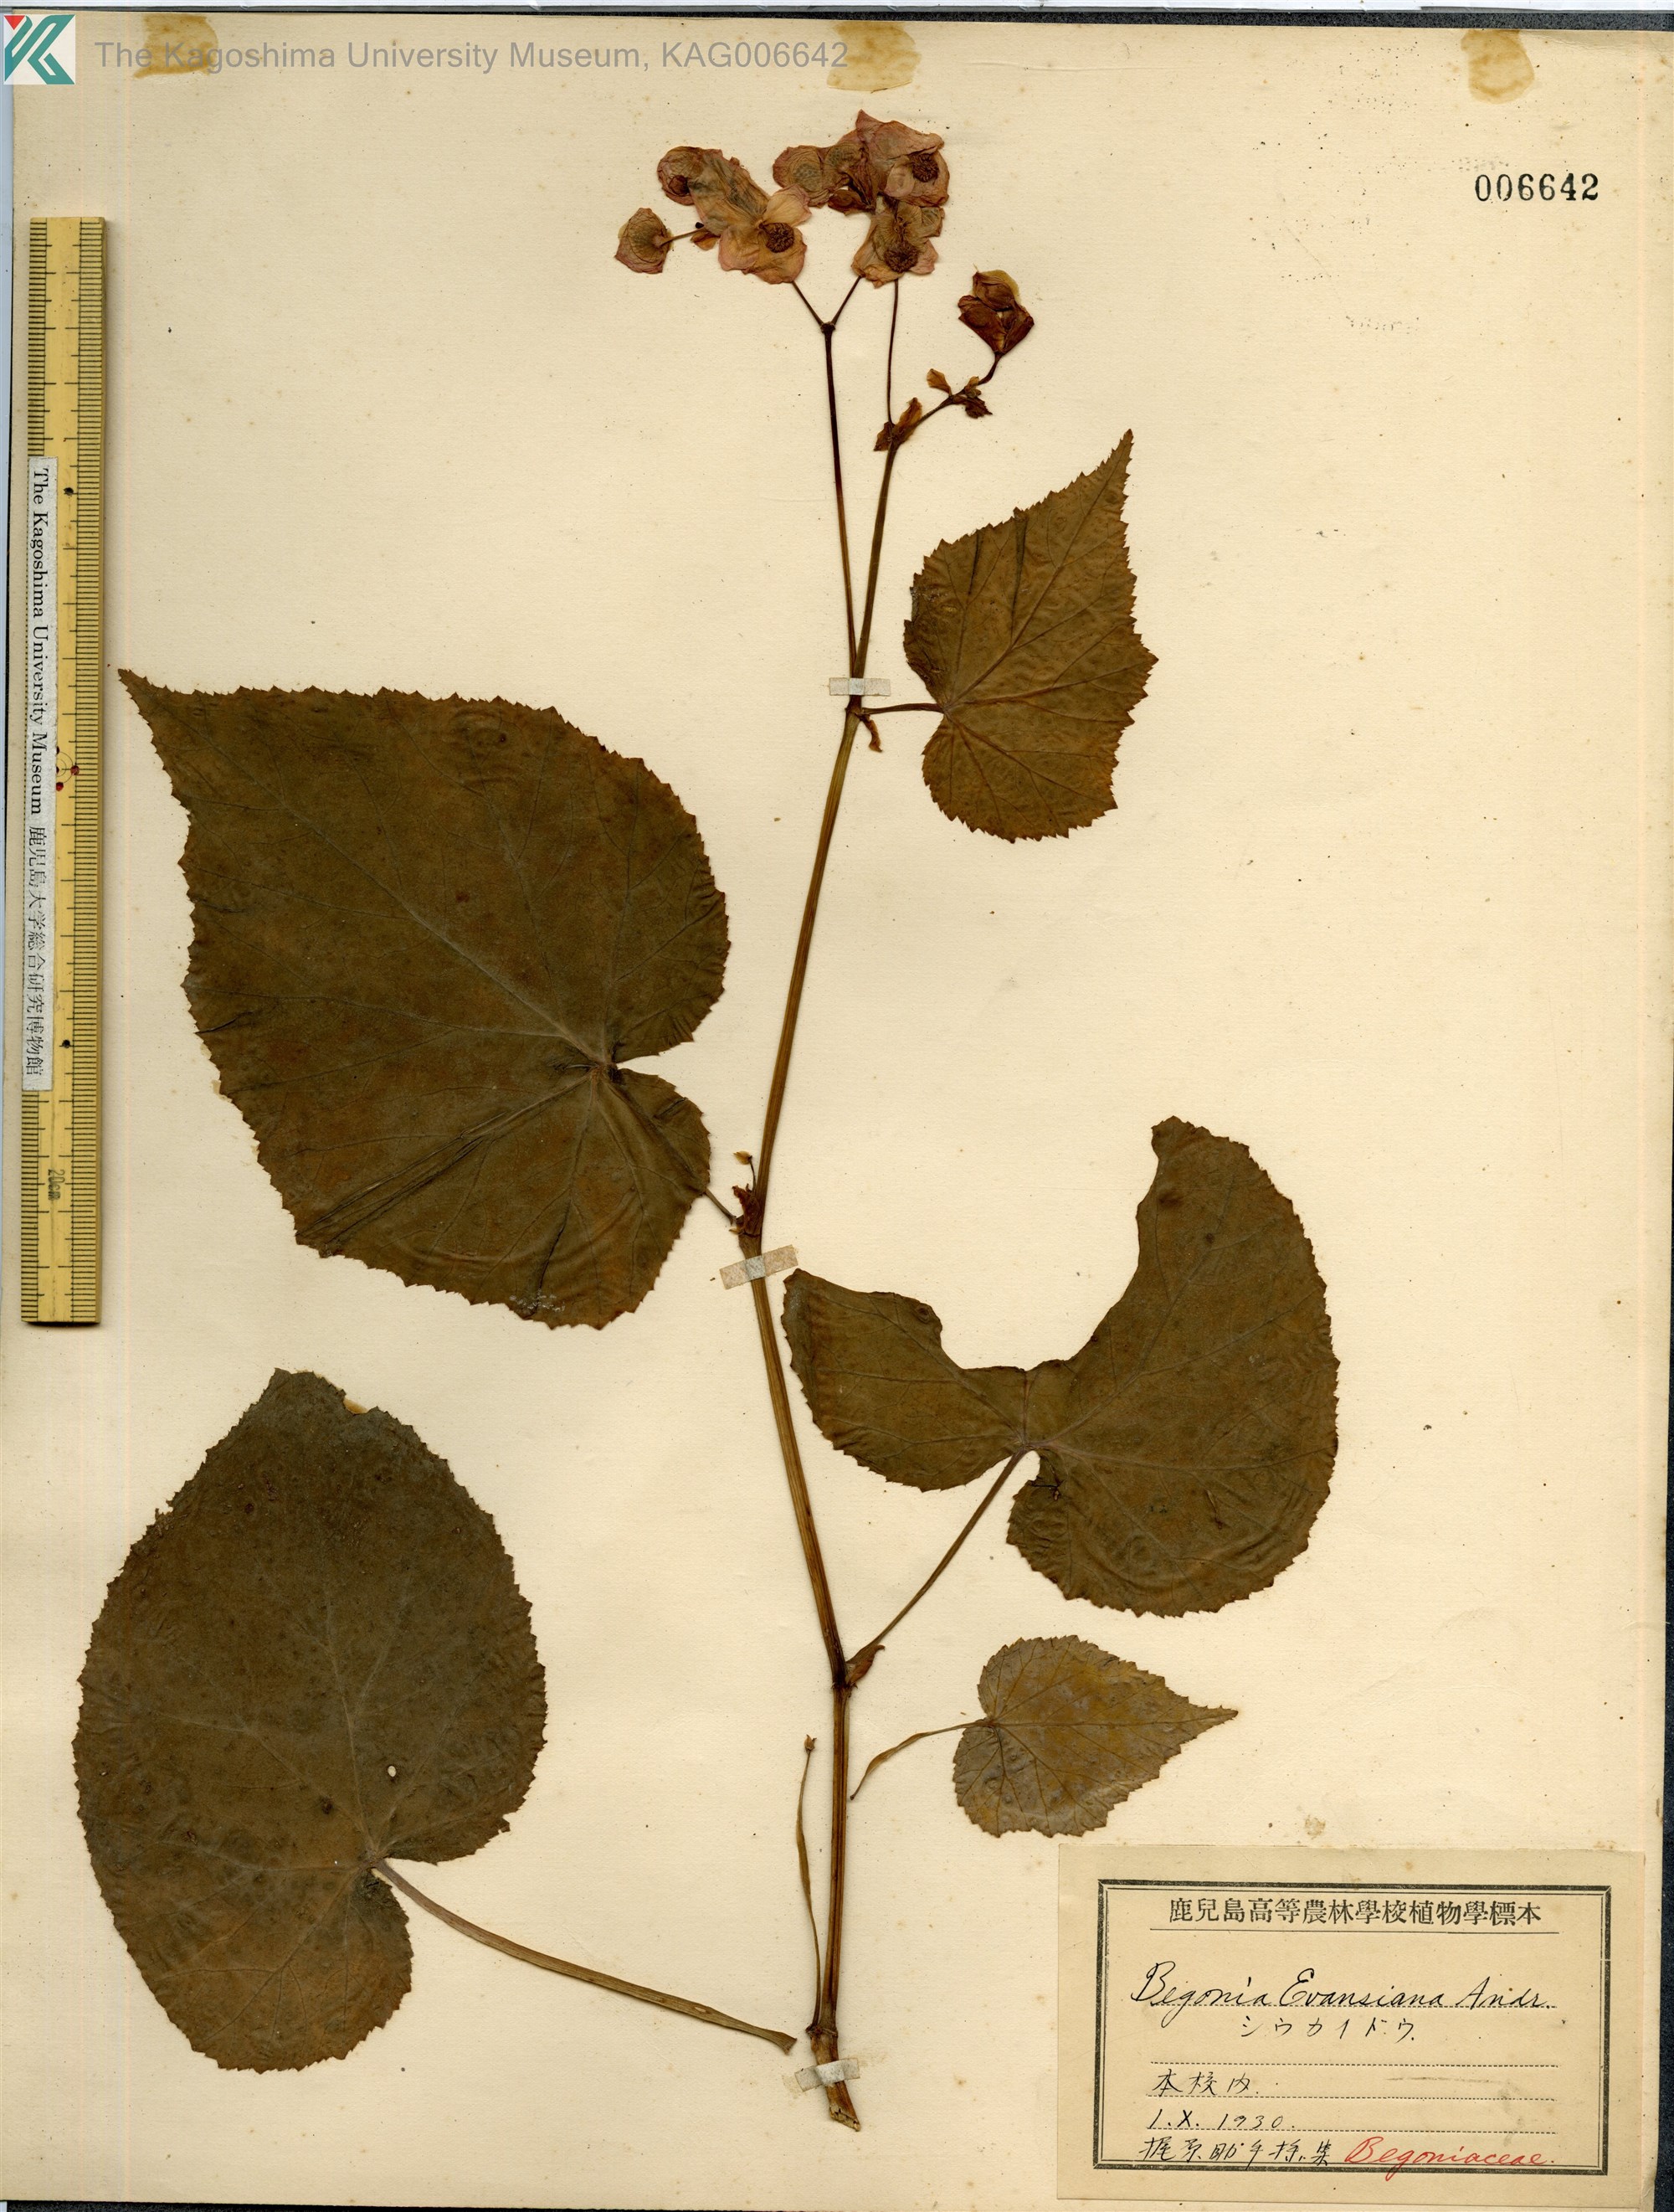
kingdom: Plantae
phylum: Tracheophyta
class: Magnoliopsida
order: Cucurbitales
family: Begoniaceae
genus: Begonia
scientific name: Begonia grandis
